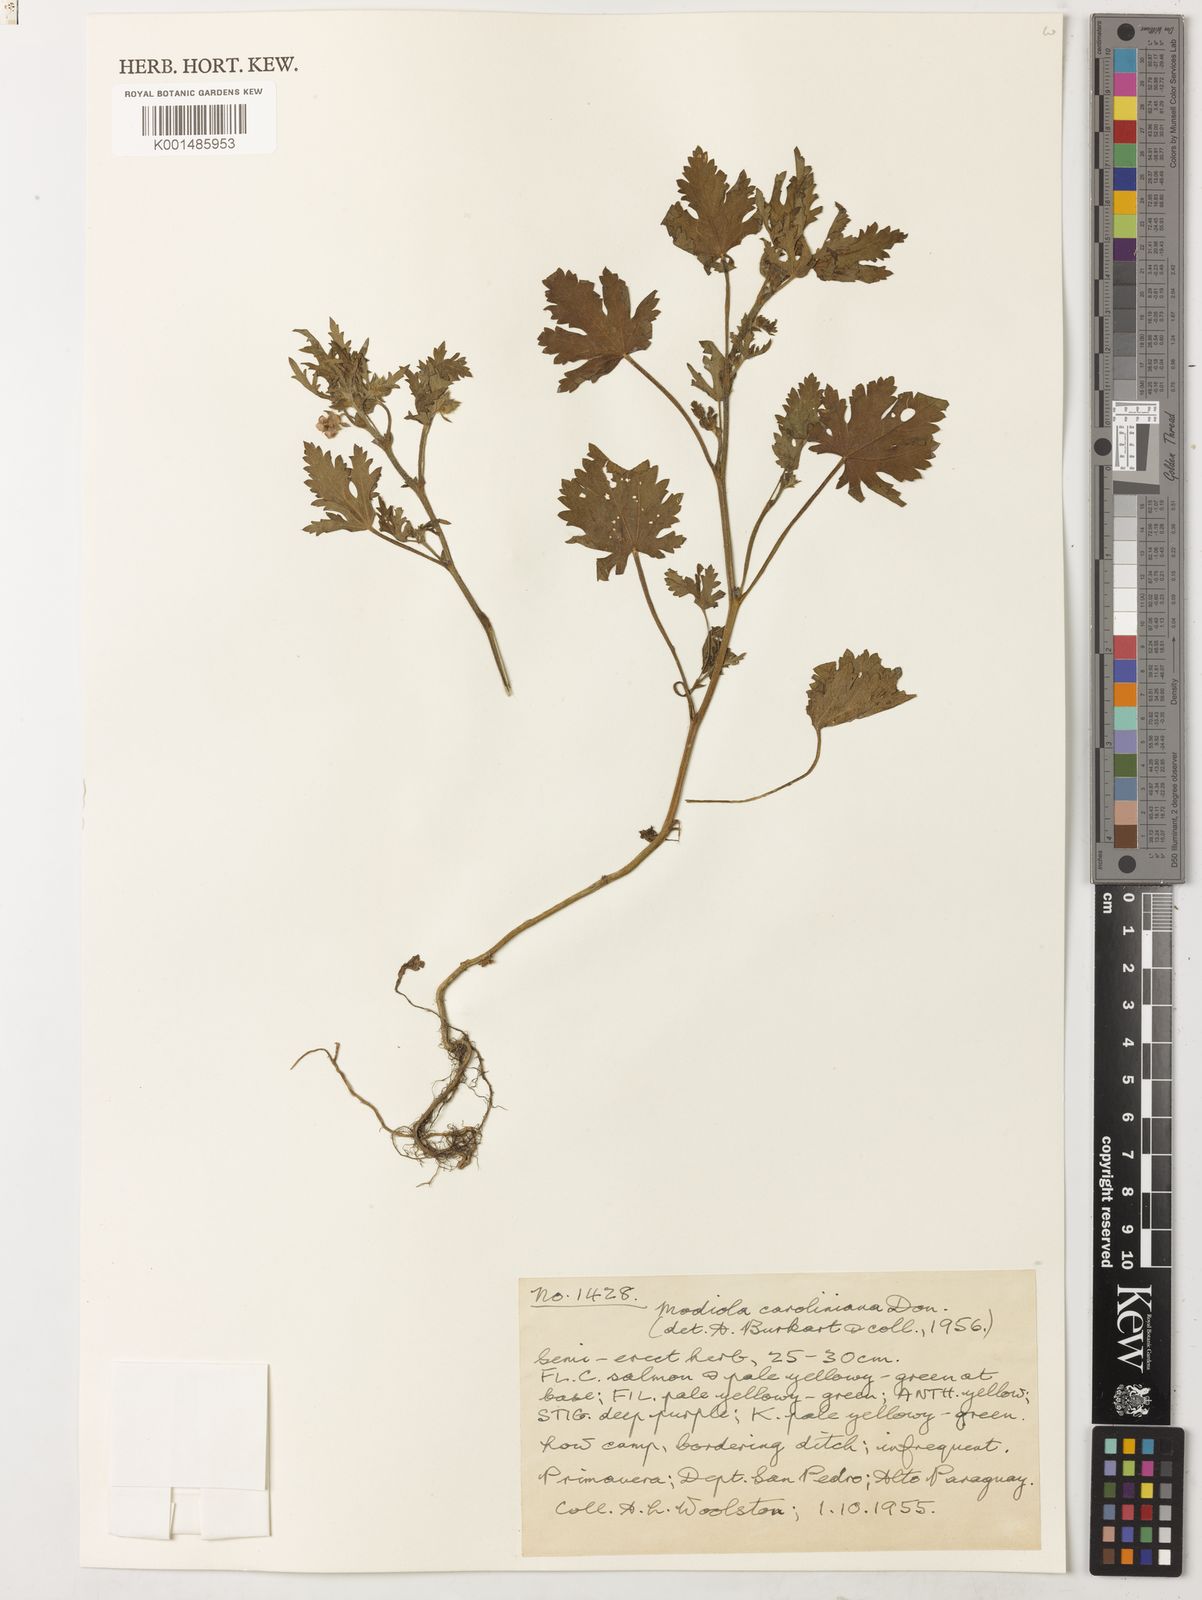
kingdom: Plantae
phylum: Tracheophyta
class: Magnoliopsida
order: Malvales
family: Malvaceae
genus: Modiola
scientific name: Modiola caroliniana
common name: Carolina bristlemallow
